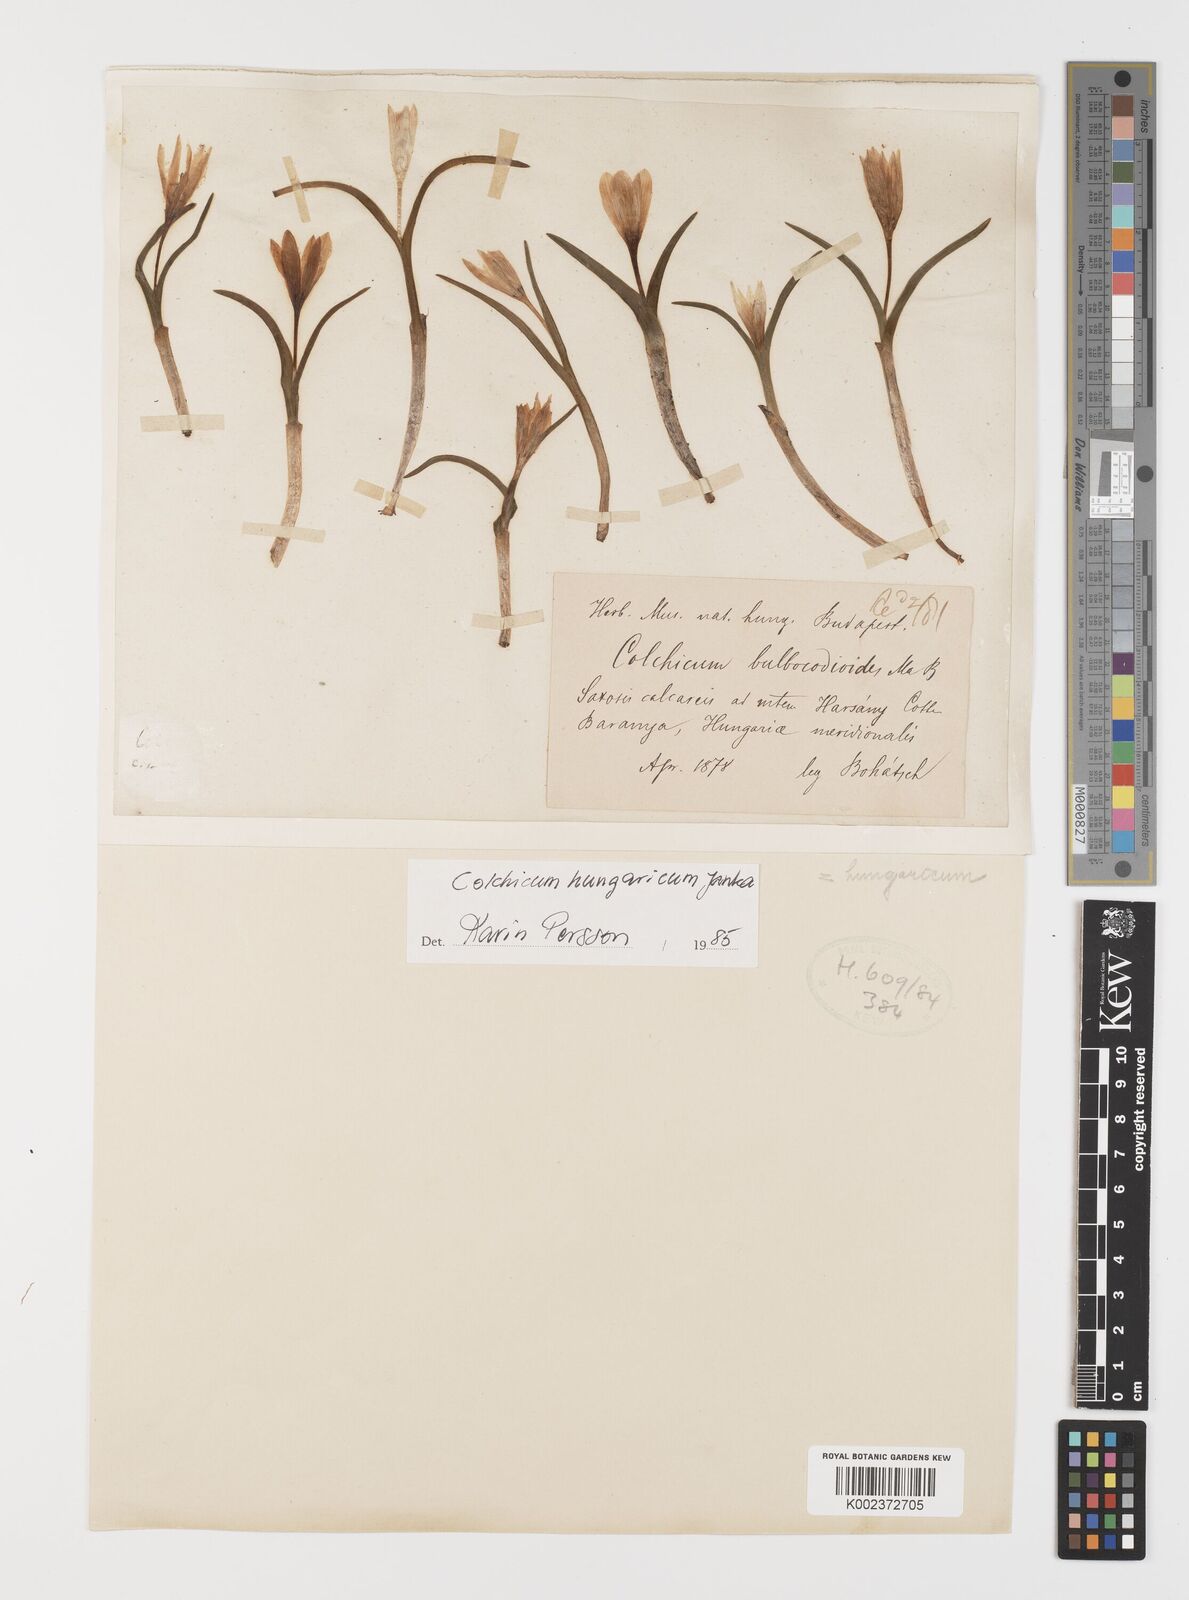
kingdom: Plantae
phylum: Tracheophyta
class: Liliopsida
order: Liliales
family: Colchicaceae
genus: Colchicum
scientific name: Colchicum hungaricum
